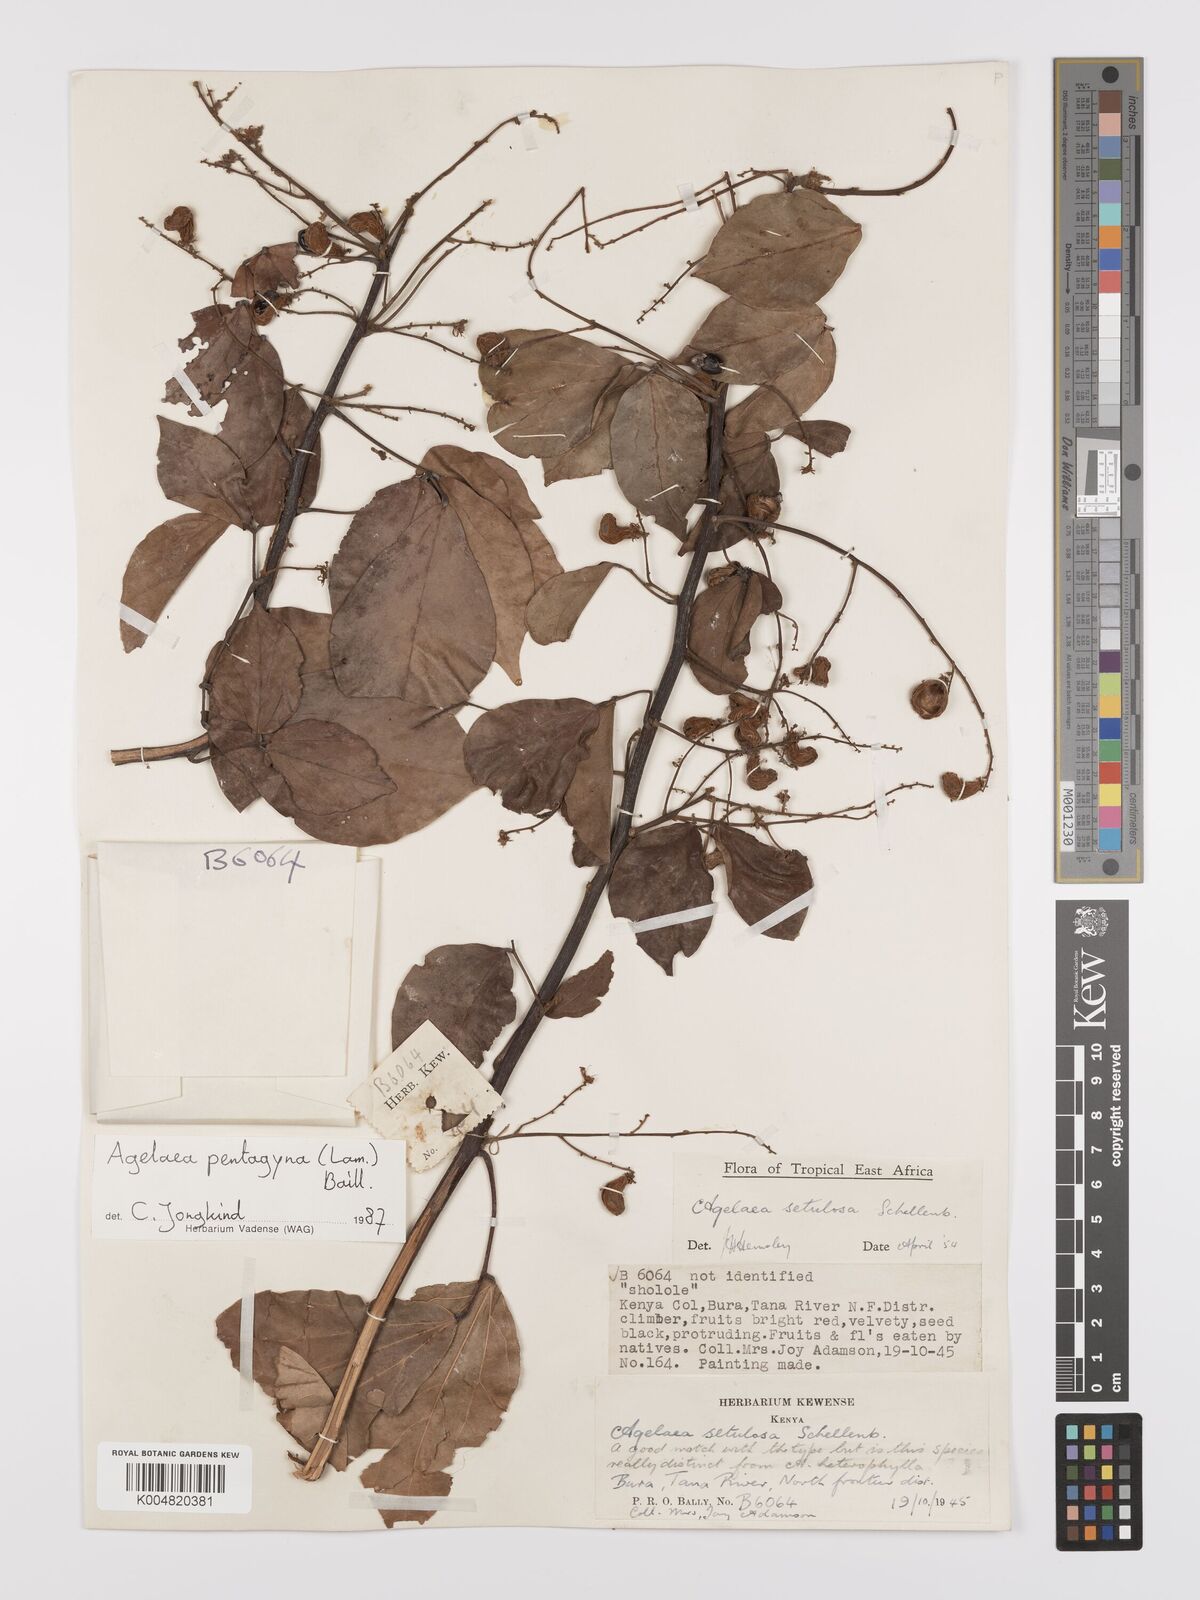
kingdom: Plantae
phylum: Tracheophyta
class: Magnoliopsida
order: Oxalidales
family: Connaraceae
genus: Agelaea
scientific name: Agelaea pentagyna
